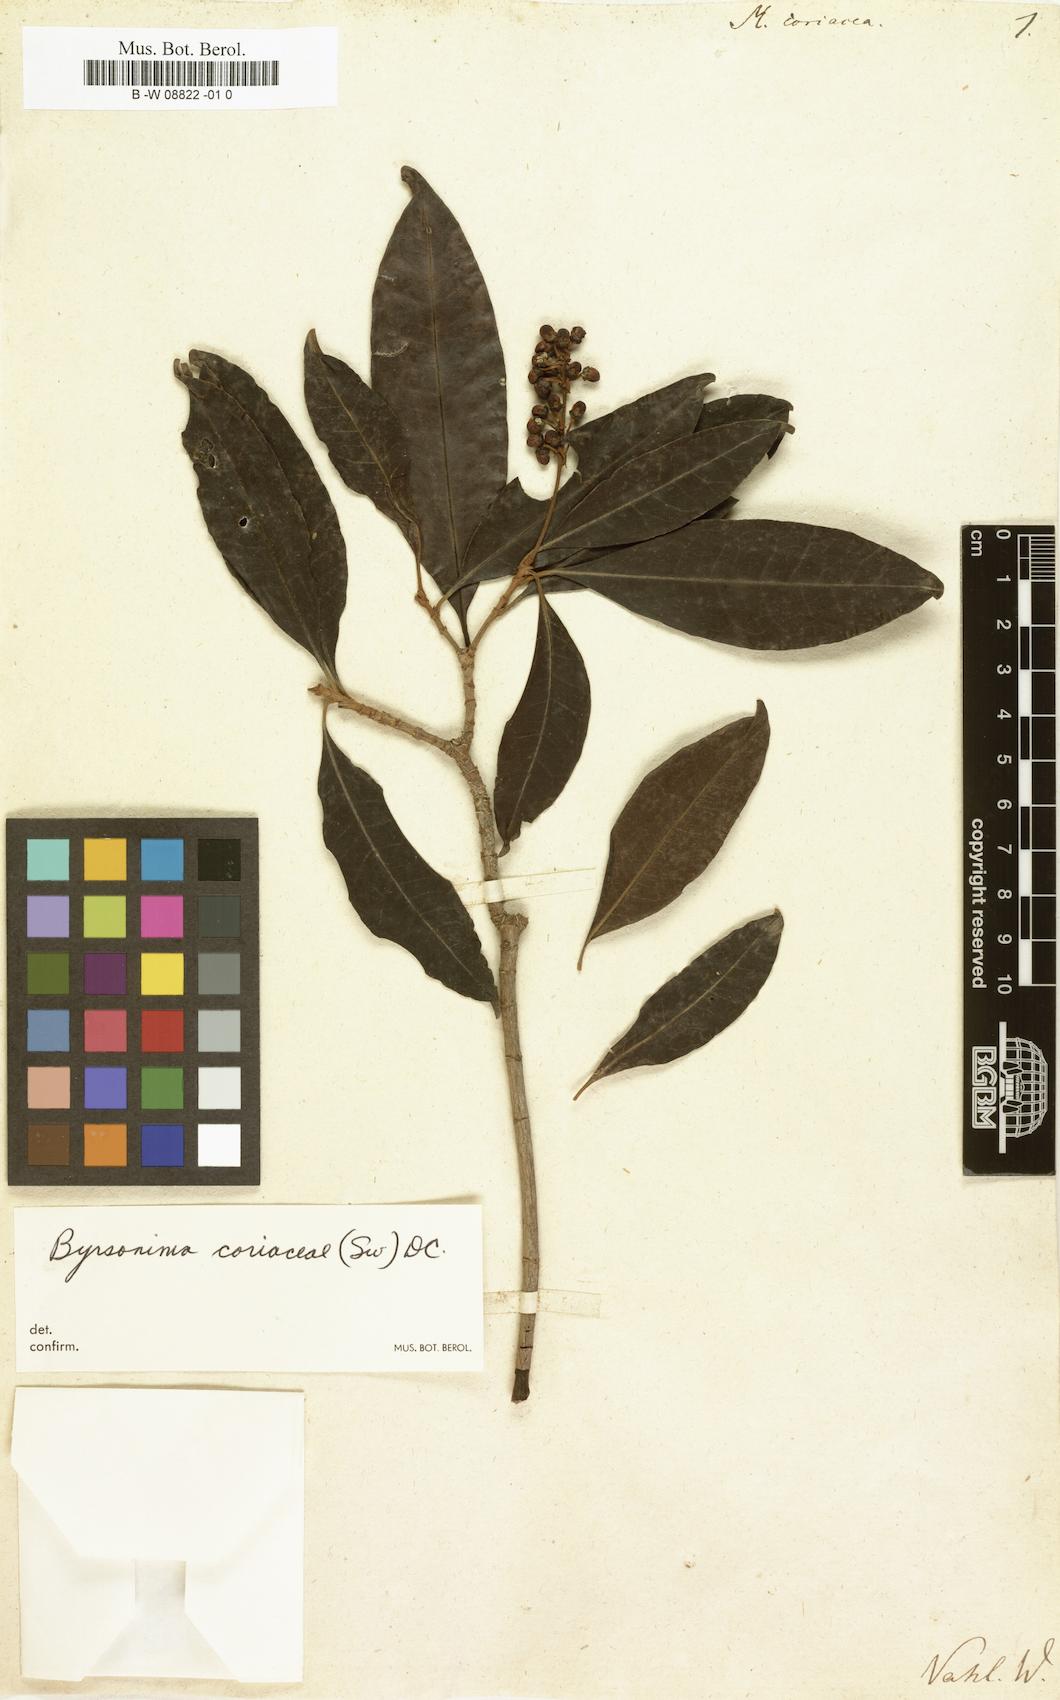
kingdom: Plantae
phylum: Tracheophyta
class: Magnoliopsida
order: Malpighiales
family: Malpighiaceae
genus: Byrsonima
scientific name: Byrsonima crassifolia
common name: Golden spoon
